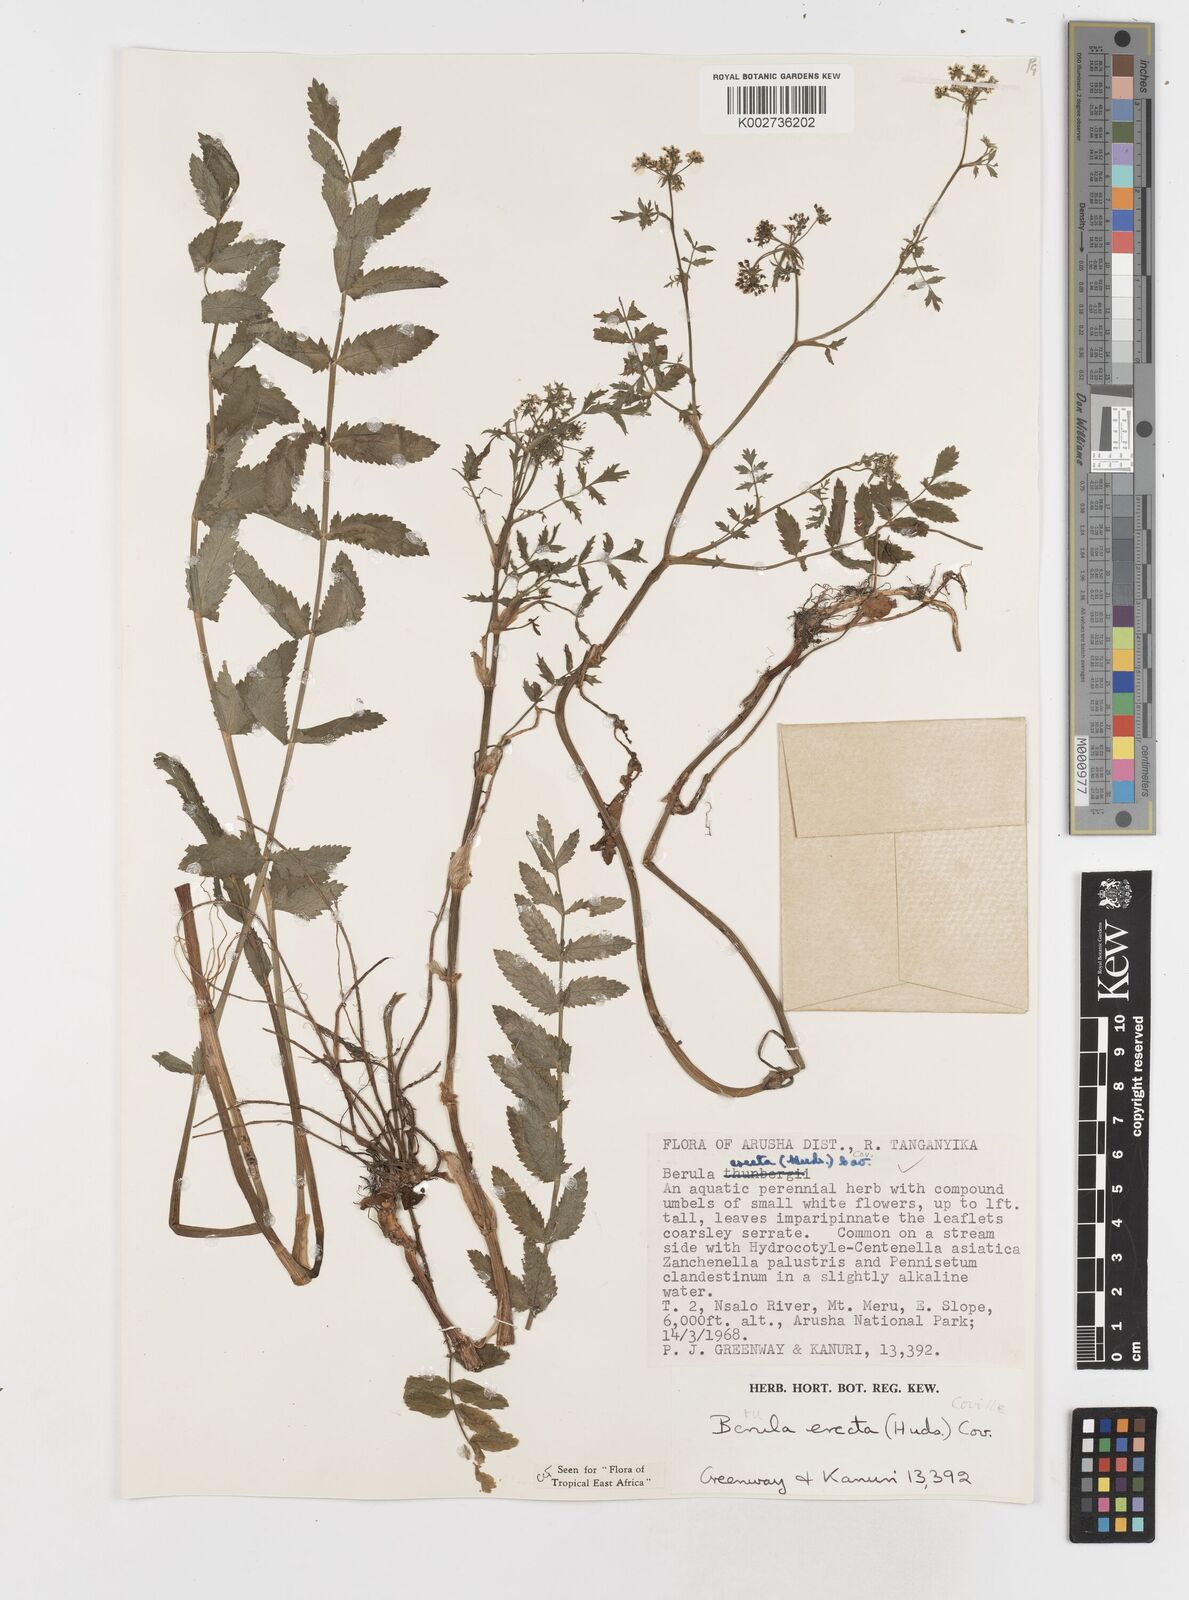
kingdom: Plantae
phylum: Tracheophyta
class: Magnoliopsida
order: Apiales
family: Apiaceae
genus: Berula
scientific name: Berula erecta
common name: Lesser water-parsnip
